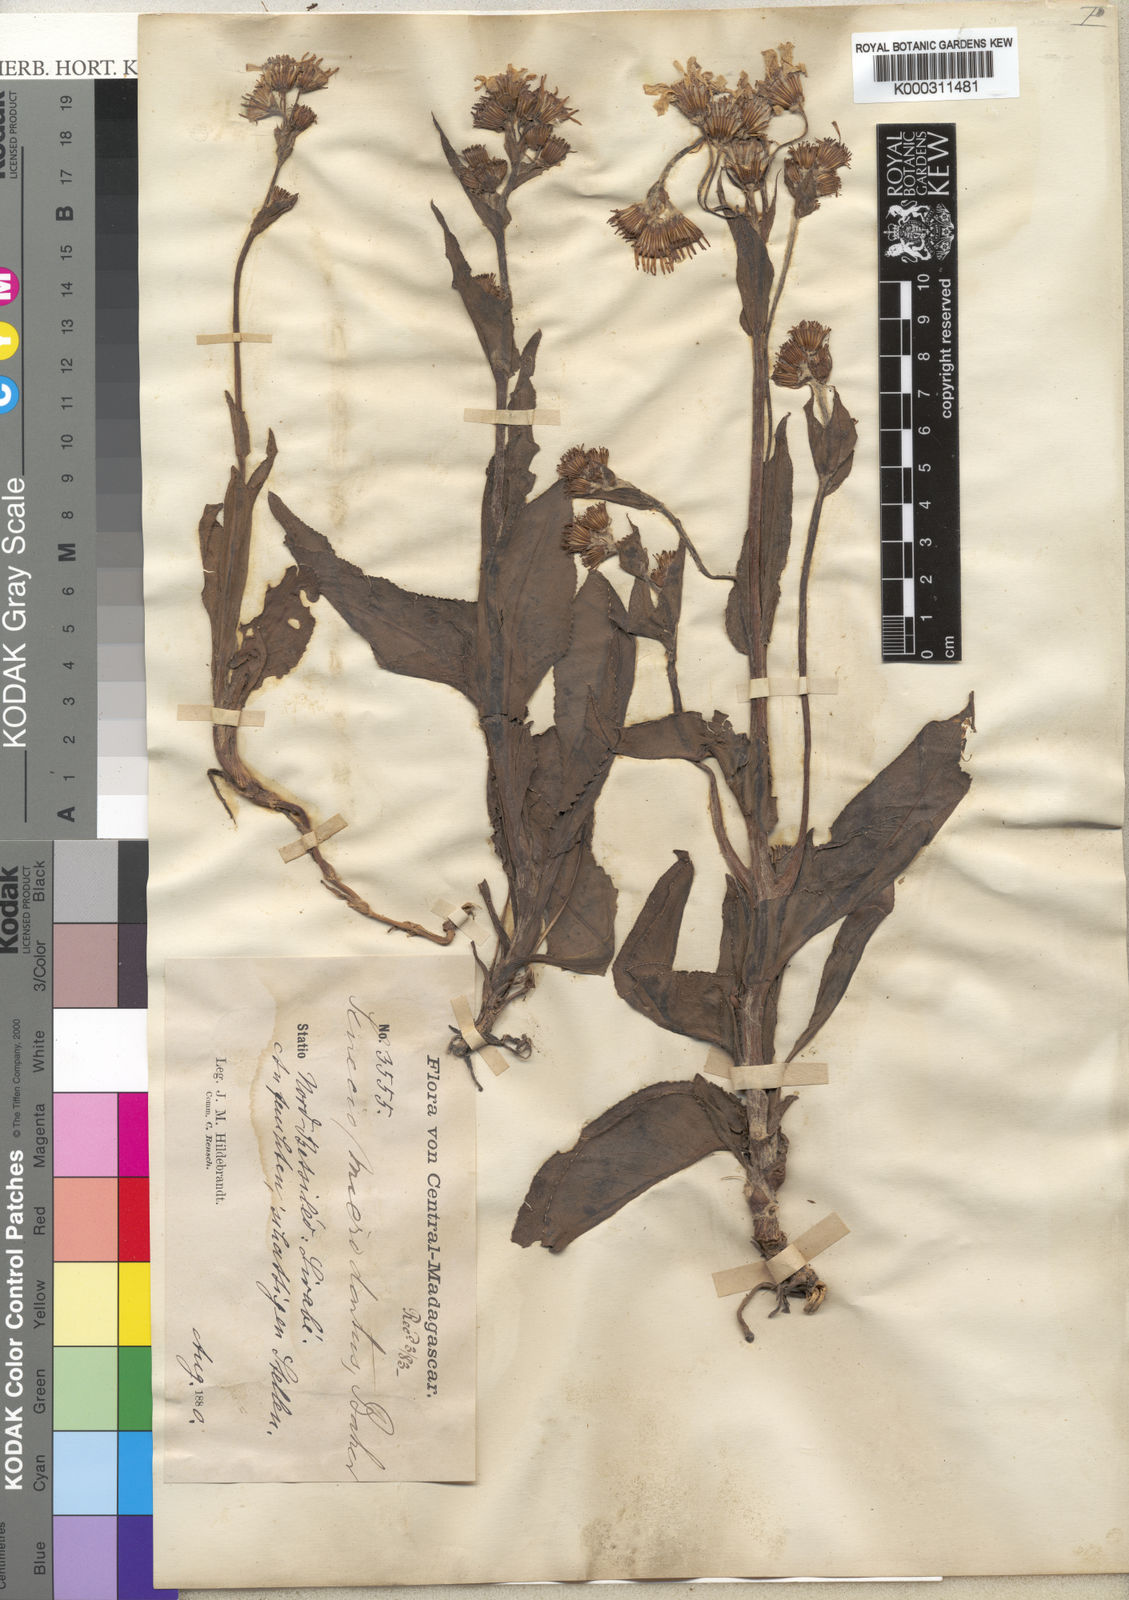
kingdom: Plantae
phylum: Tracheophyta
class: Magnoliopsida
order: Asterales
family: Asteraceae
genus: Senecio
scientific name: Senecio adscendens
